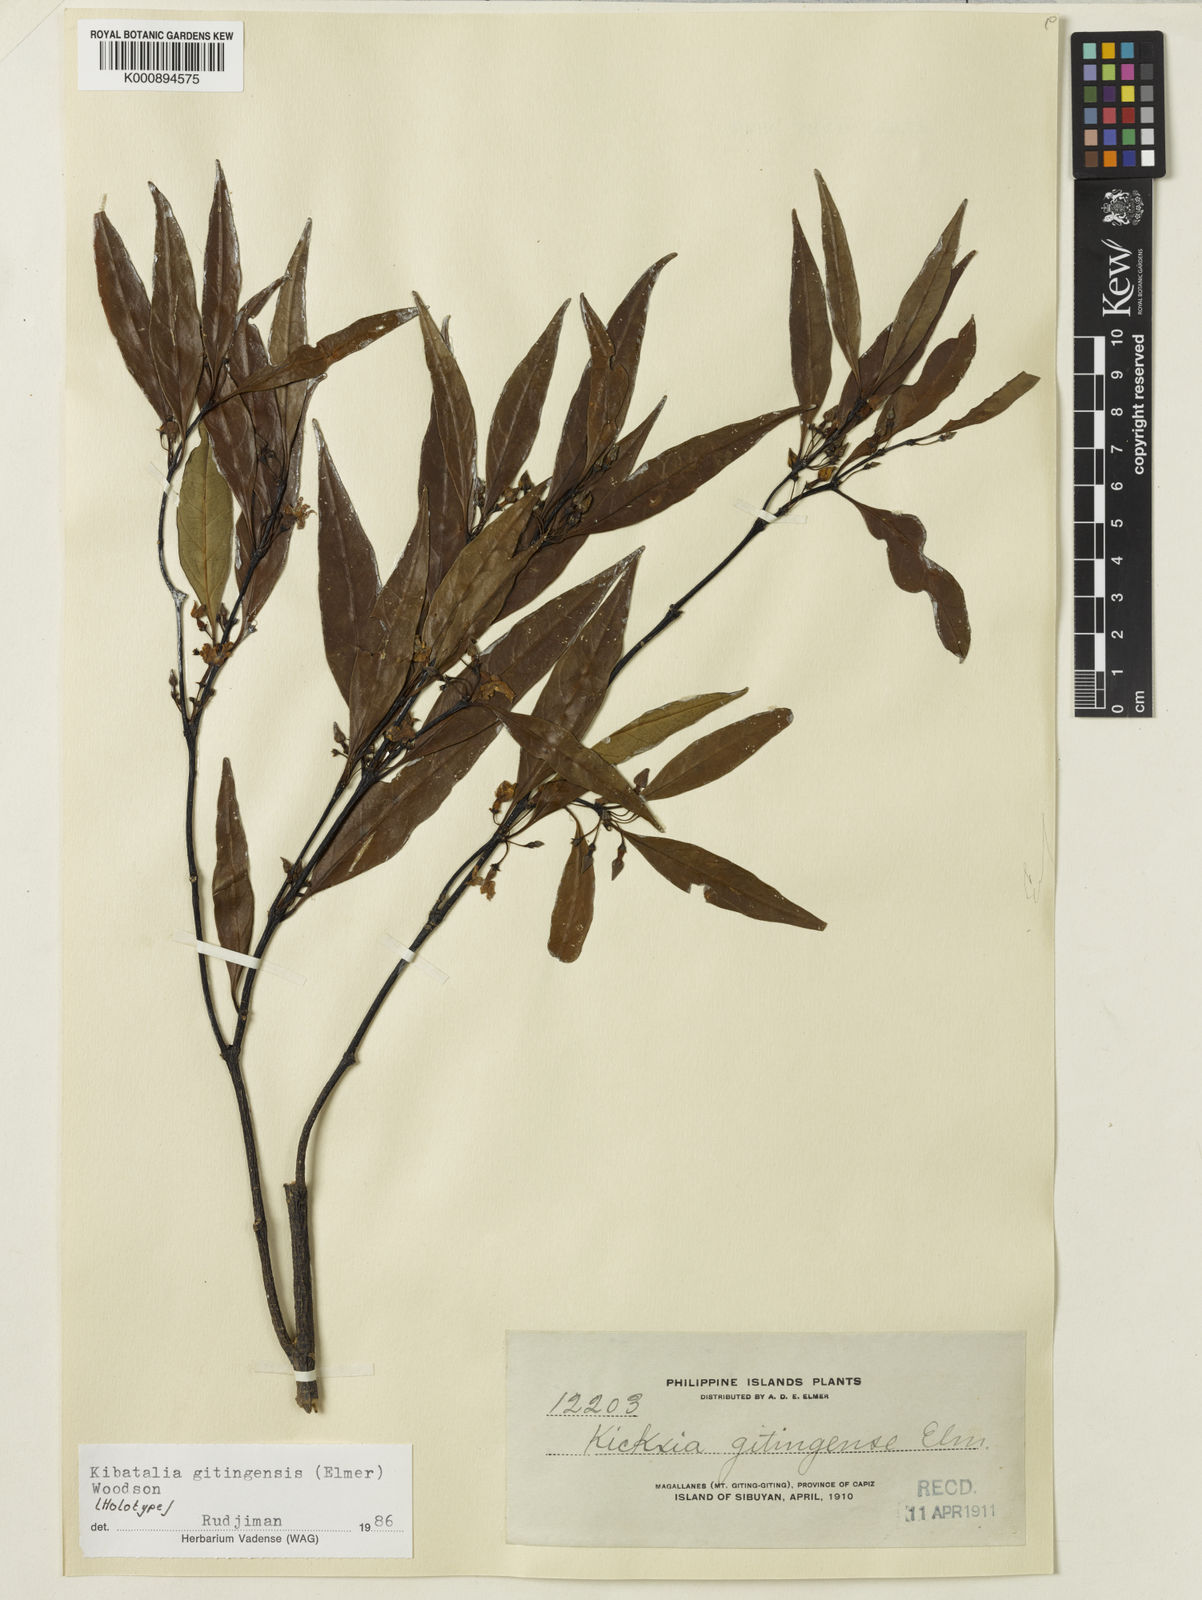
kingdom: Plantae
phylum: Tracheophyta
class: Magnoliopsida
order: Gentianales
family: Apocynaceae
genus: Kibatalia
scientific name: Kibatalia gitingensis
